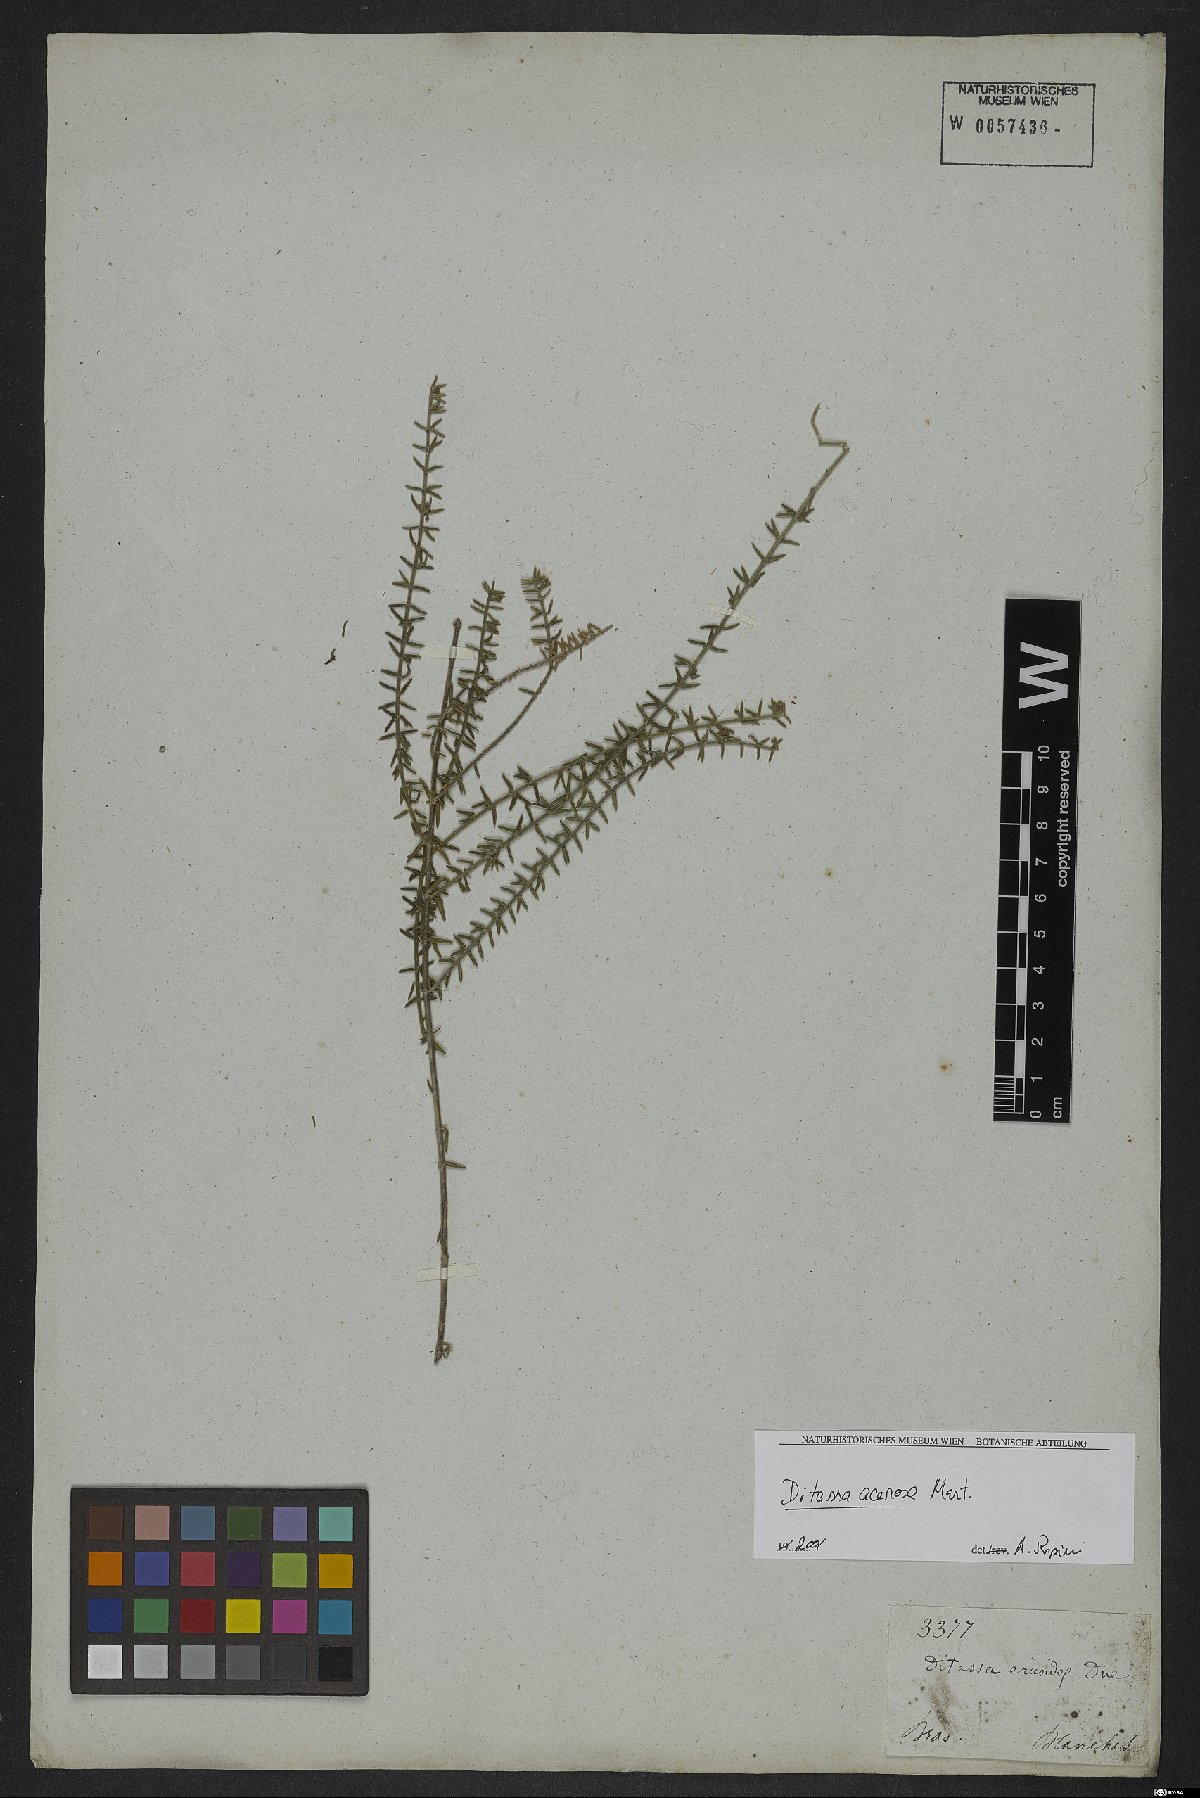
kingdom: Plantae
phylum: Tracheophyta
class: Magnoliopsida
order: Gentianales
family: Apocynaceae
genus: Minaria
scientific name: Minaria acerosa
